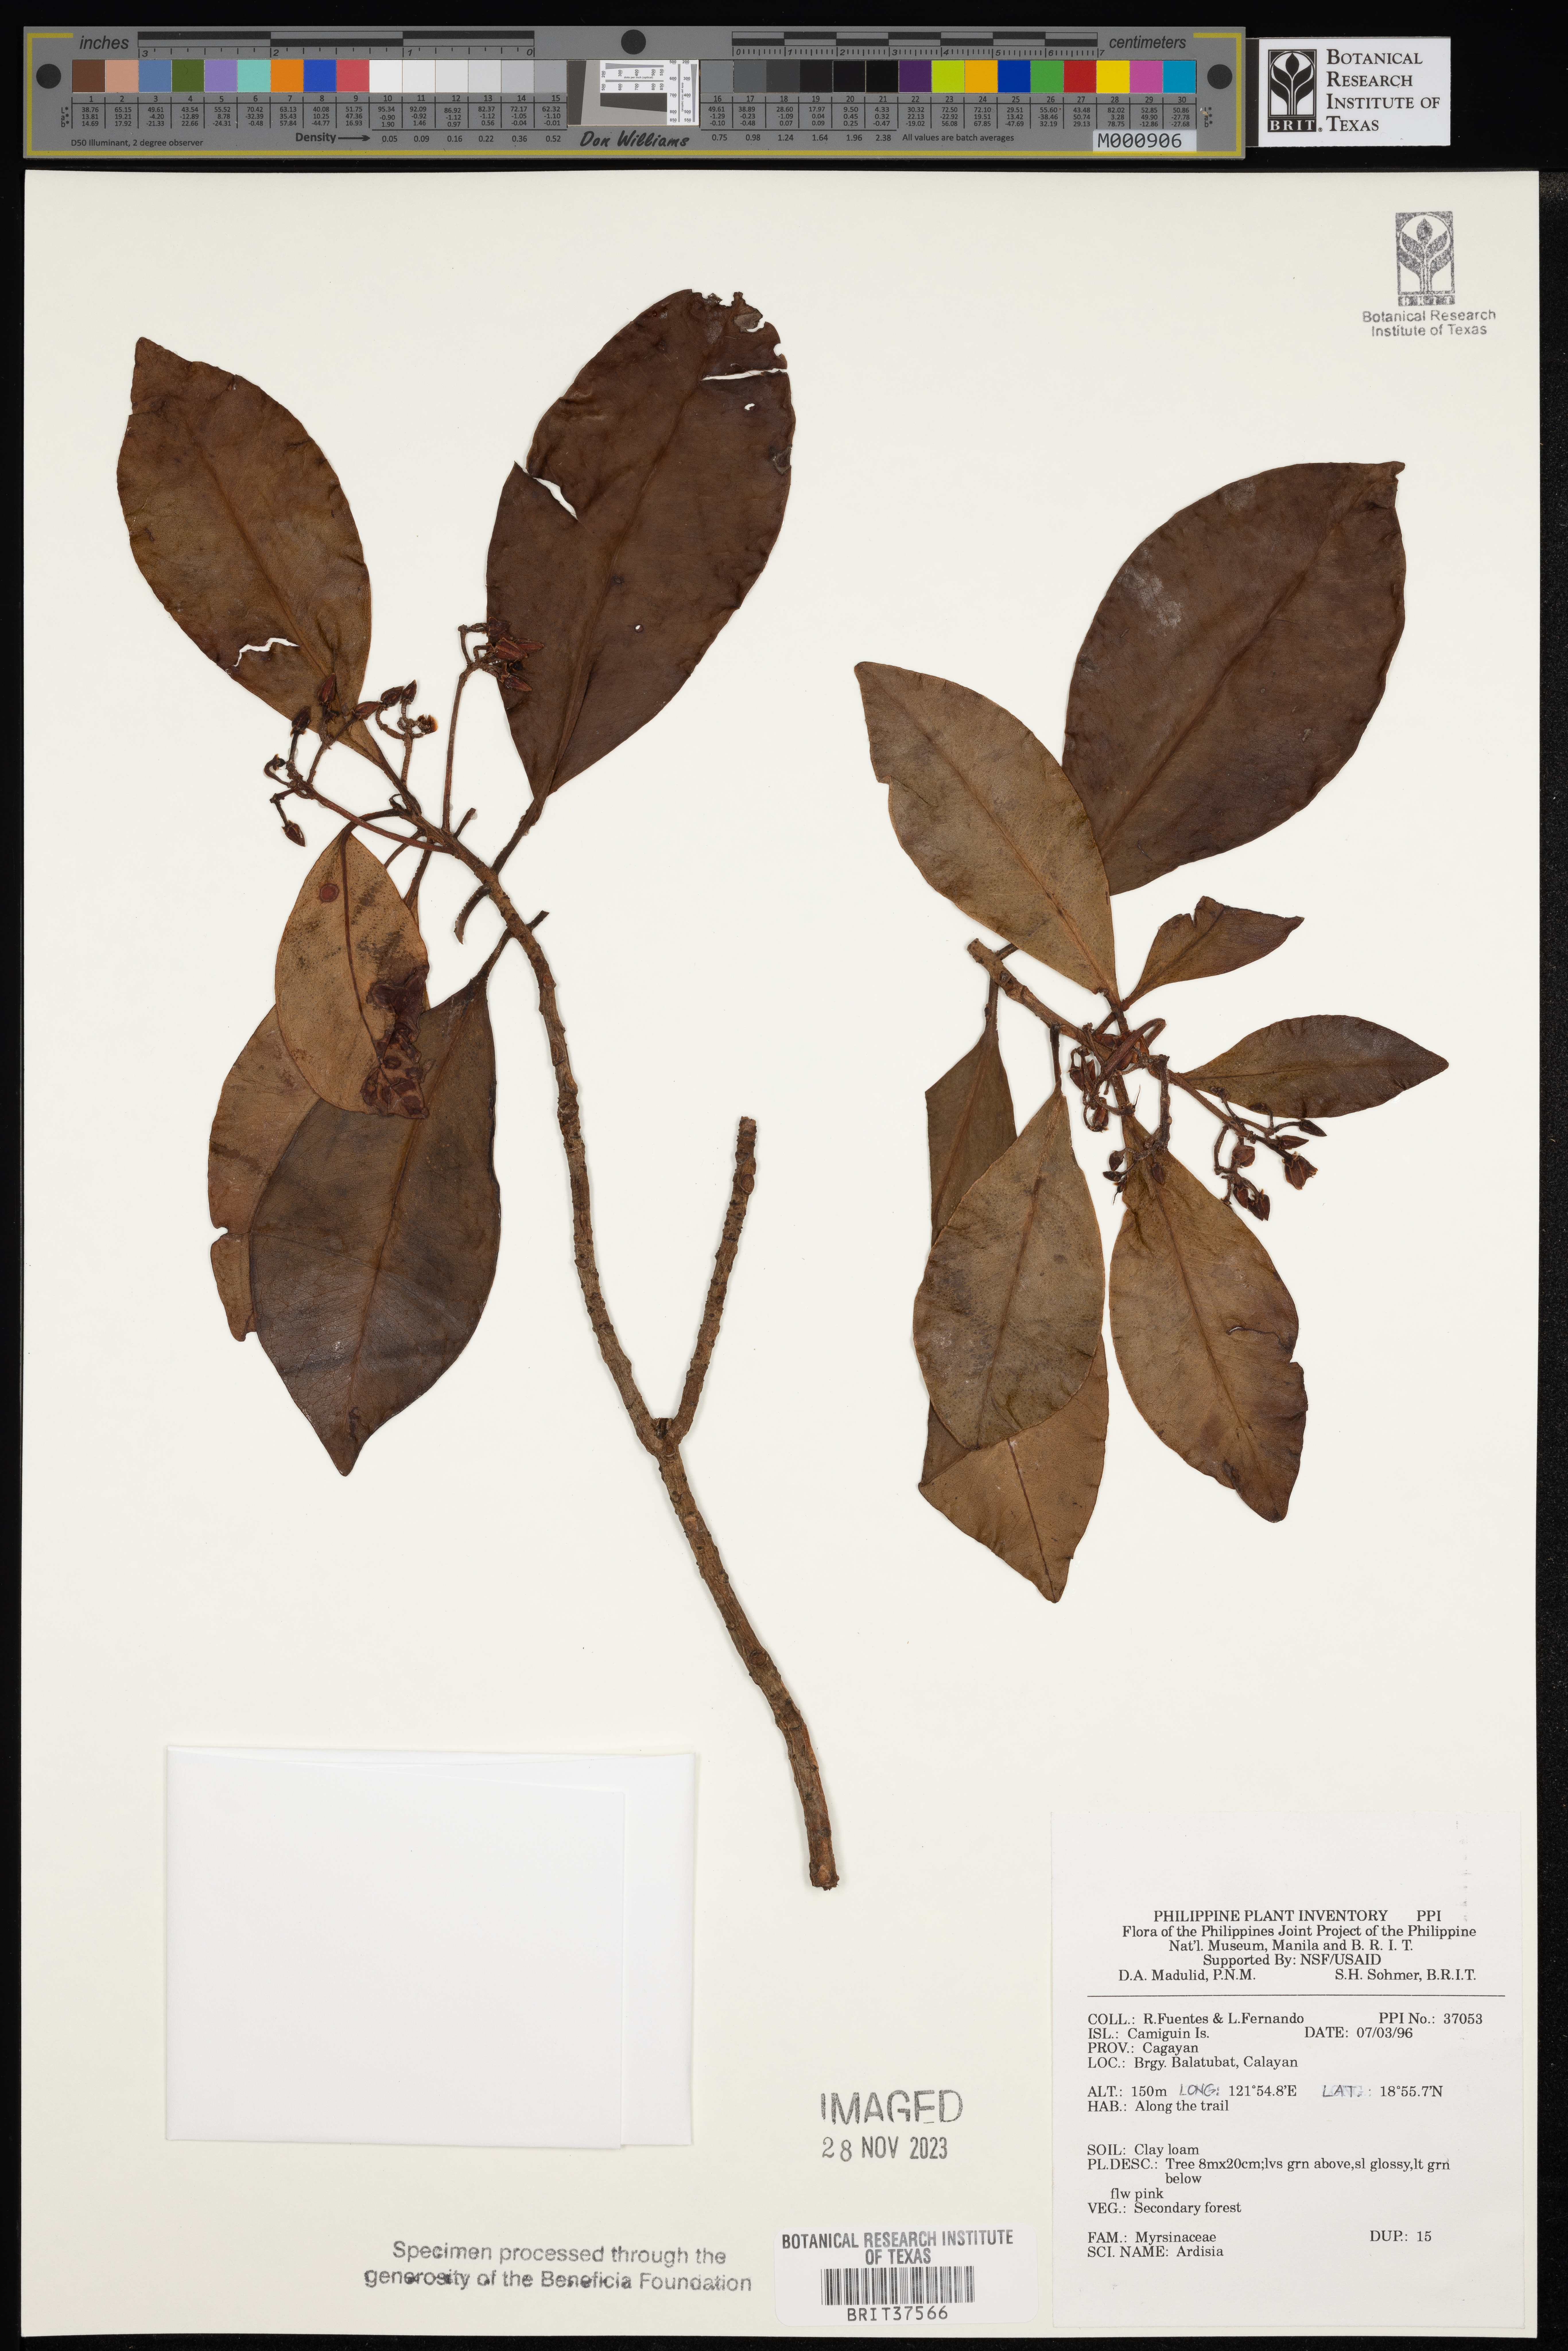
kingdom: Plantae
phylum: Tracheophyta
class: Magnoliopsida
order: Ericales
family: Primulaceae
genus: Ardisia
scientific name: Ardisia
